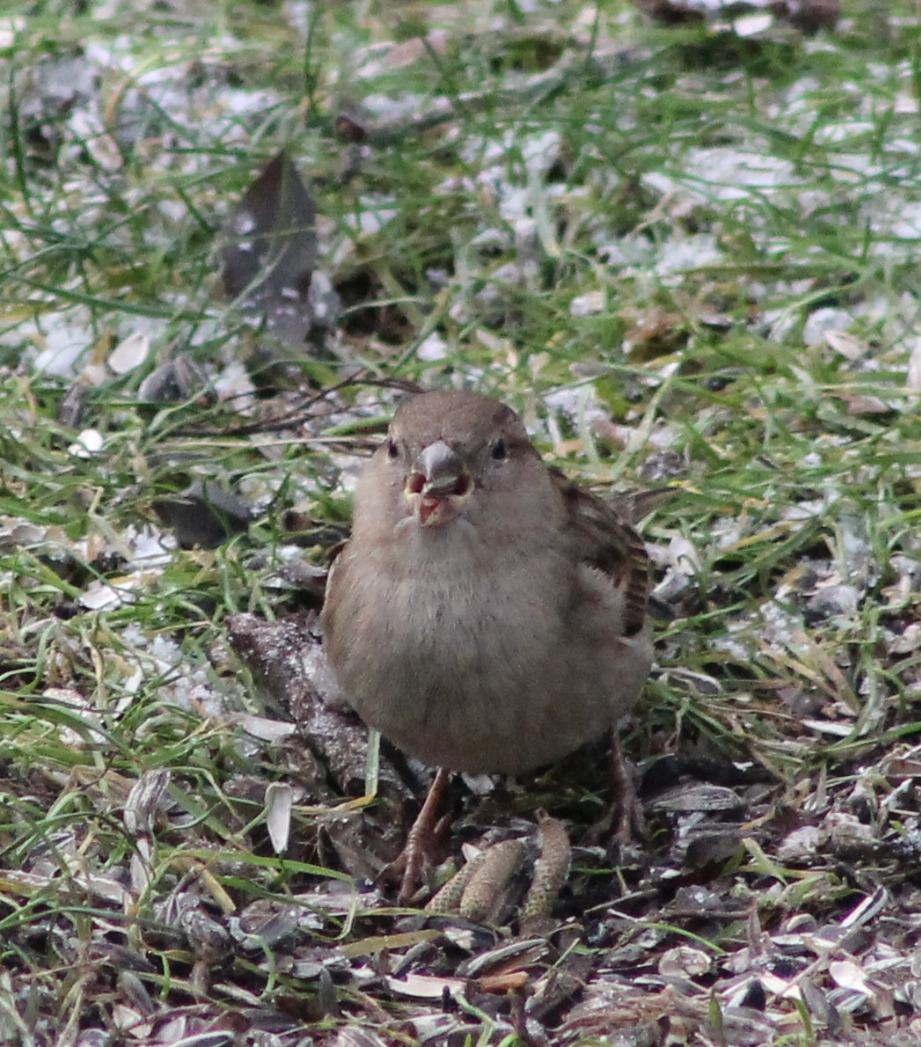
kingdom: Animalia
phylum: Chordata
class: Aves
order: Passeriformes
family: Passeridae
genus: Passer
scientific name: Passer domesticus
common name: Gråspurv
